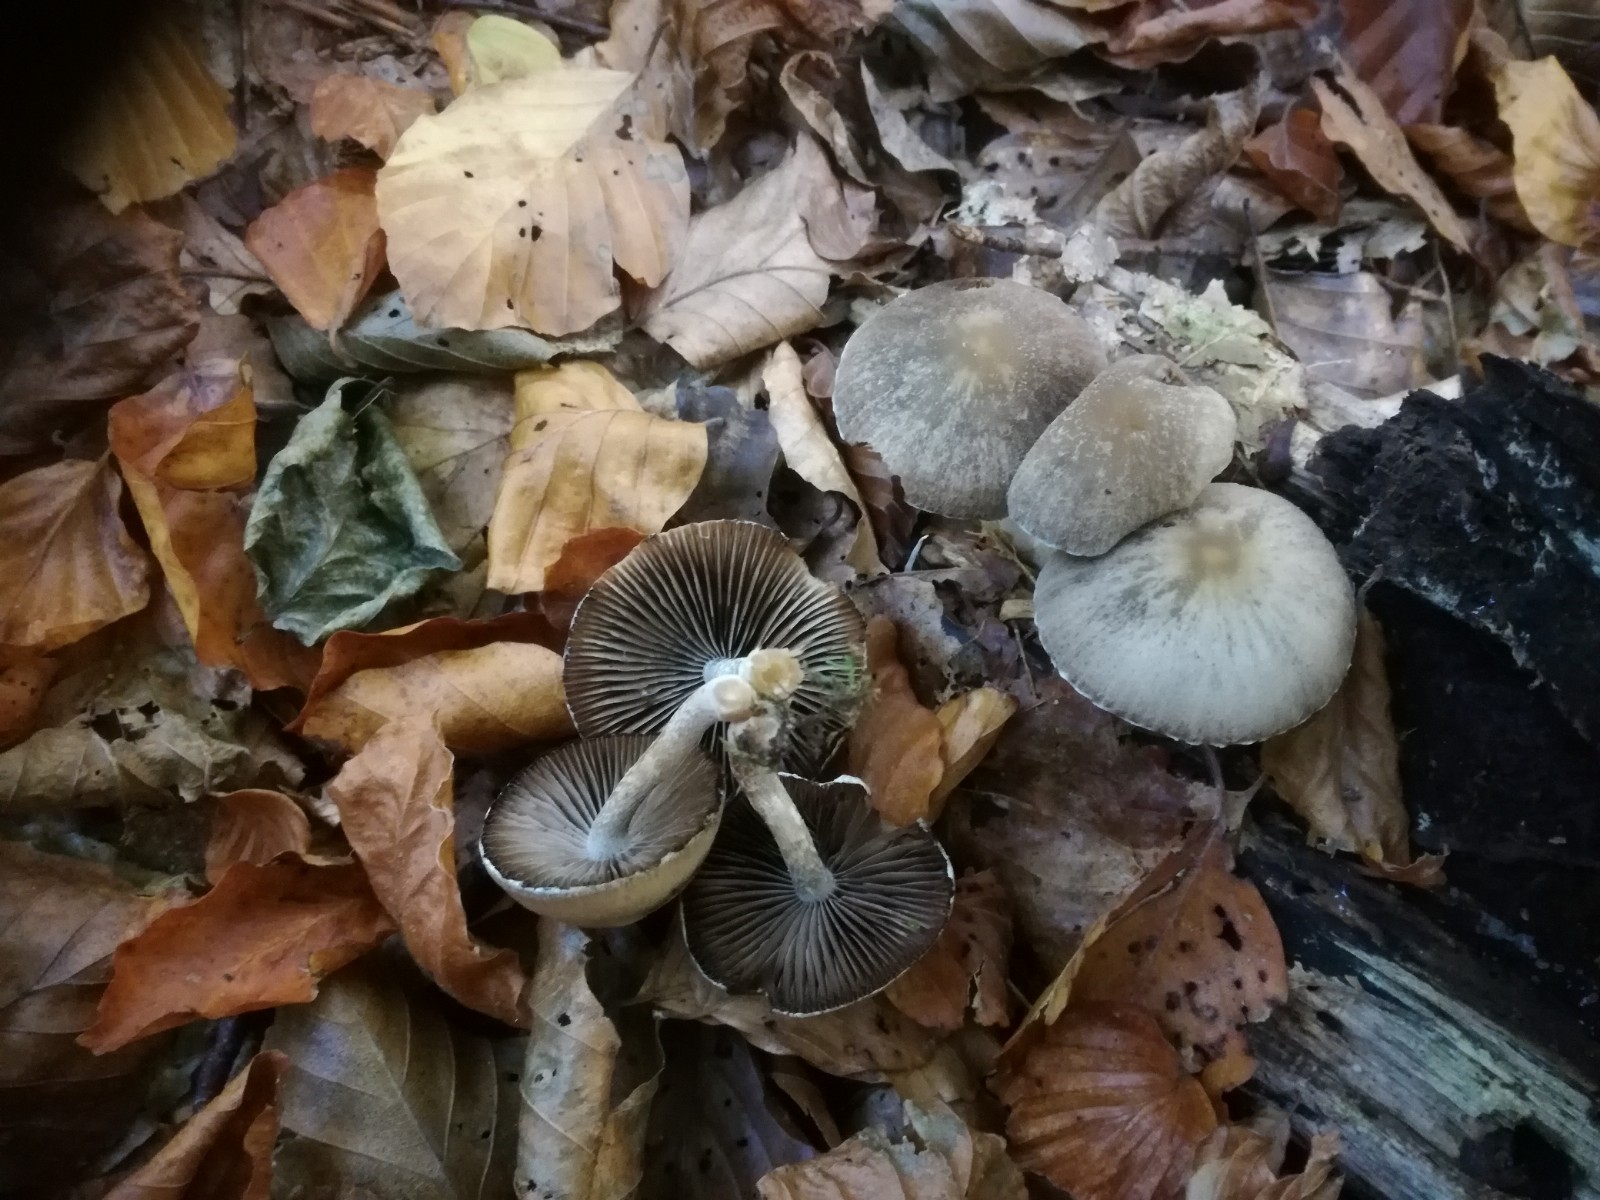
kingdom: Fungi
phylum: Basidiomycota
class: Agaricomycetes
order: Agaricales
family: Psathyrellaceae
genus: Psathyrella
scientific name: Psathyrella spintrigeroides
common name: tandet mørkhat
